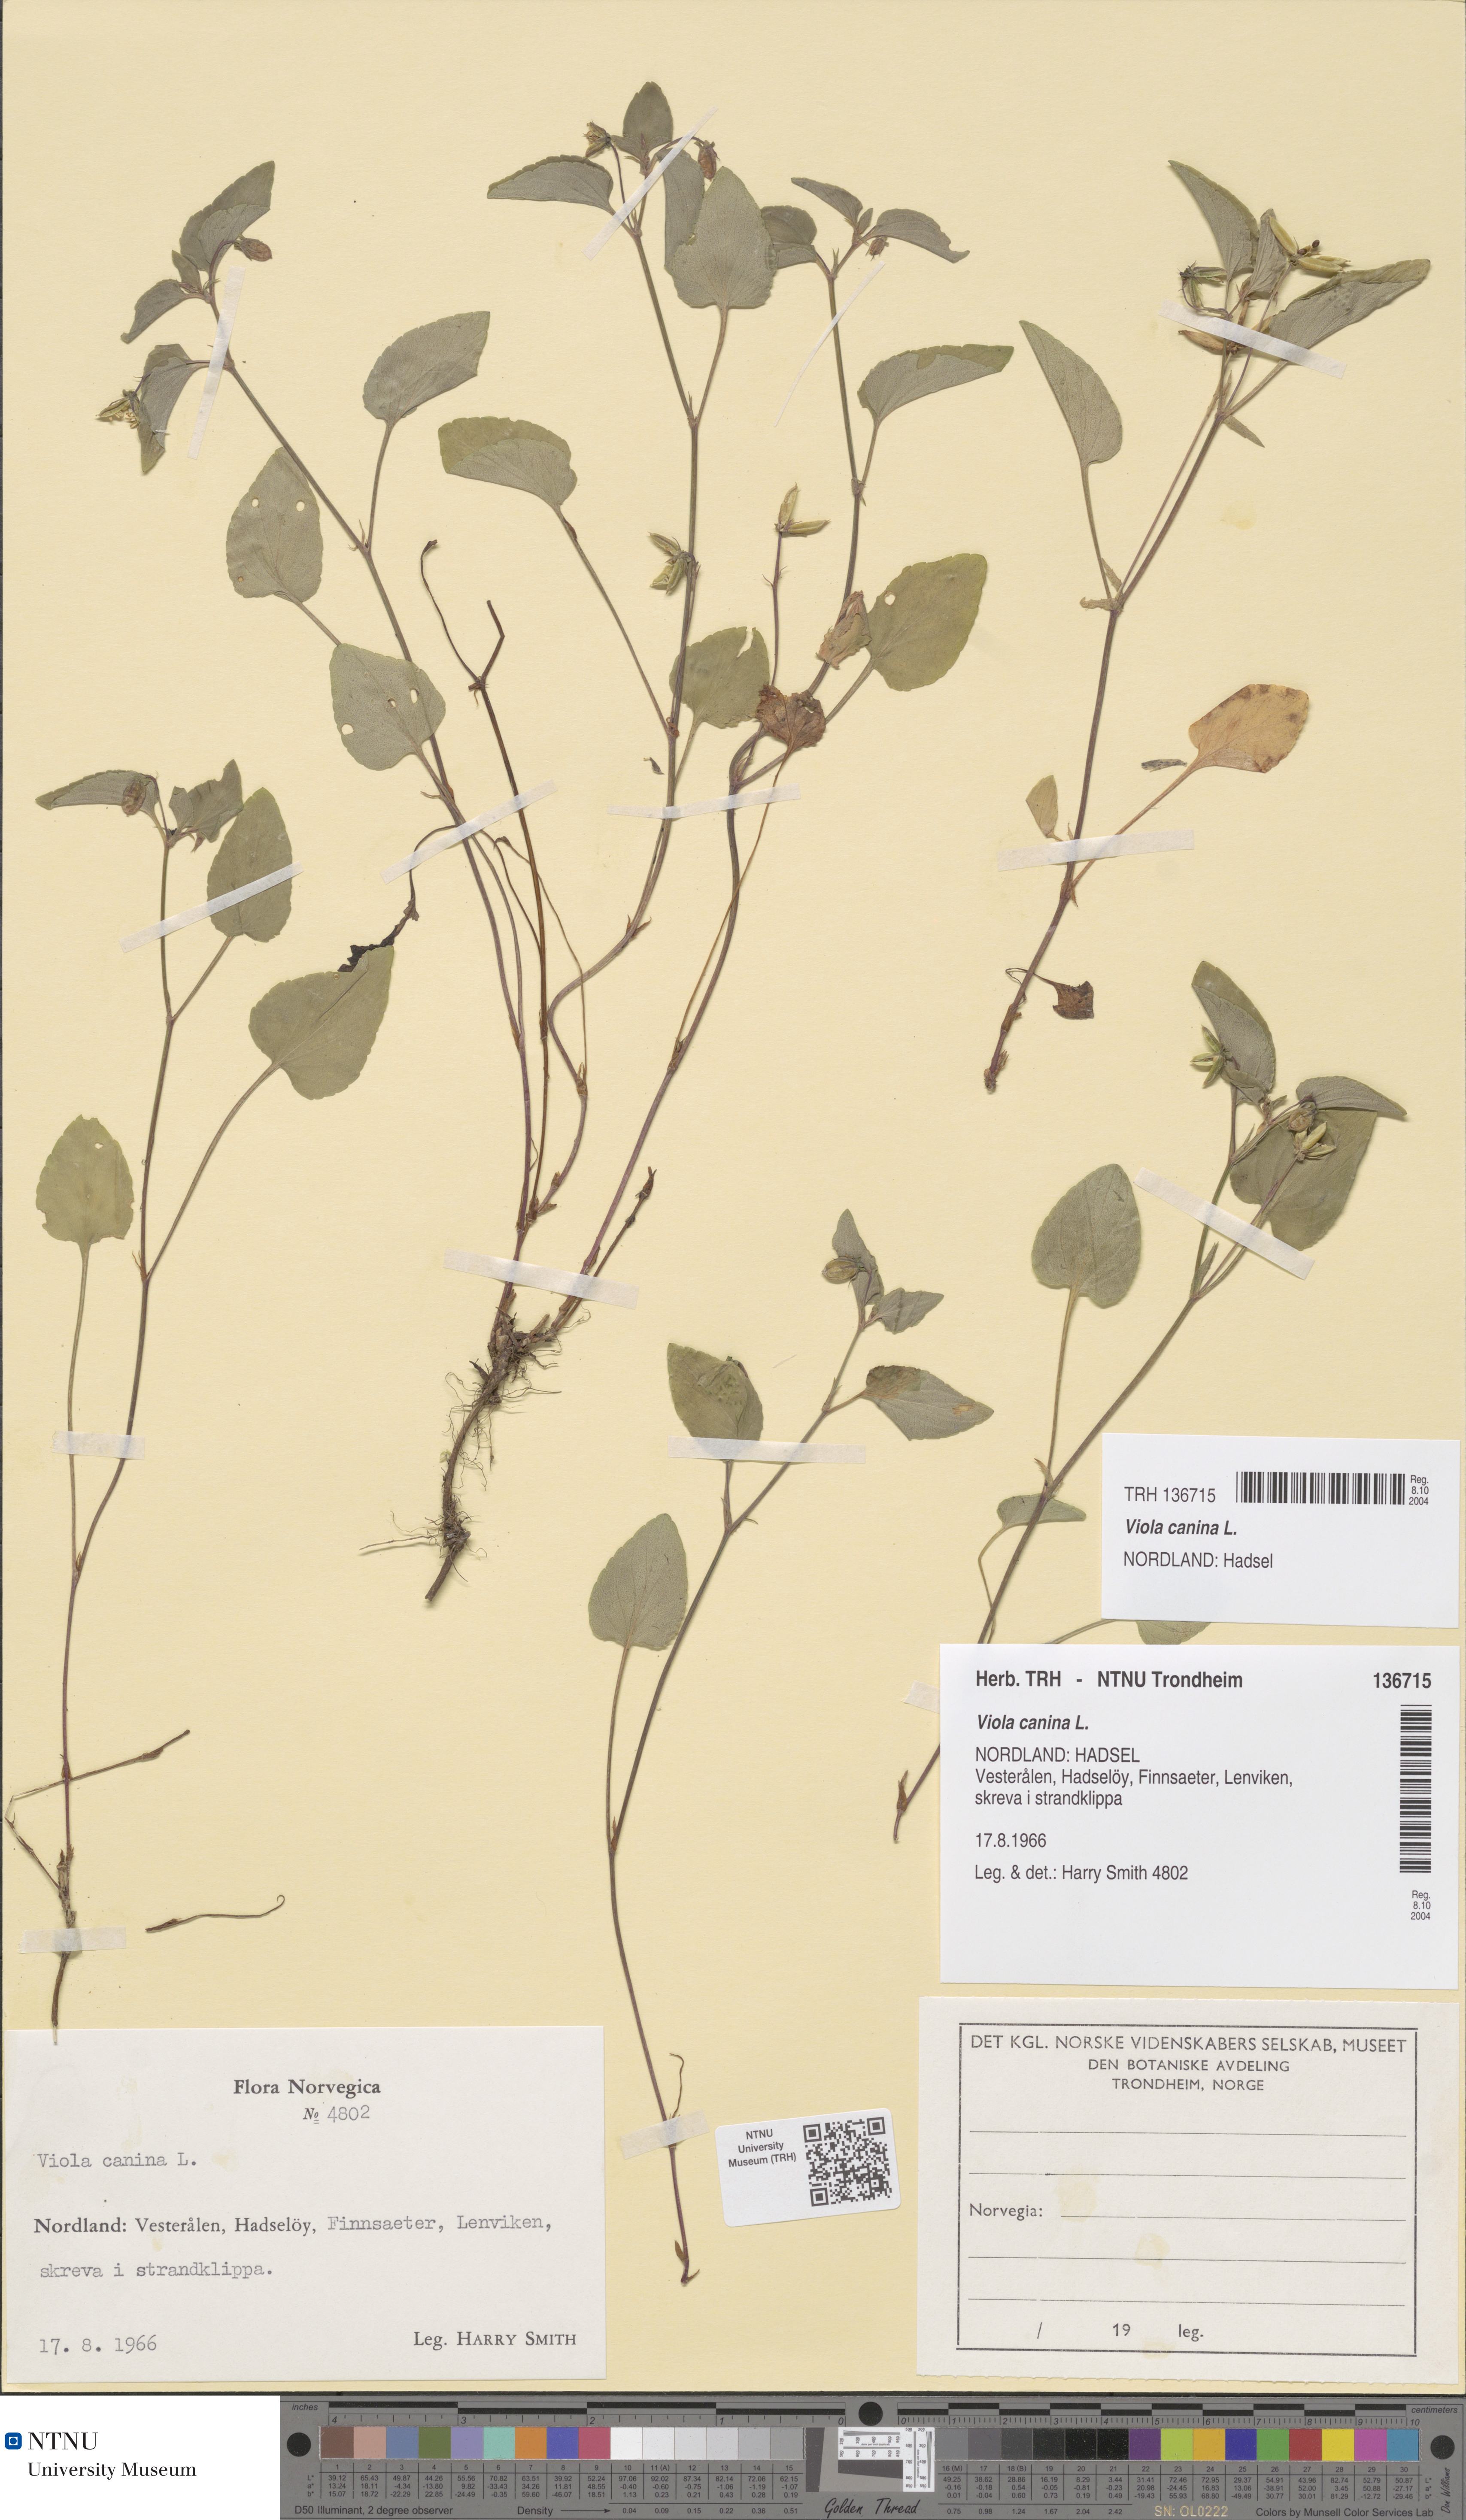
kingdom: Plantae
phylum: Tracheophyta
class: Magnoliopsida
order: Malpighiales
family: Violaceae
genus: Viola
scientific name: Viola canina
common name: Heath dog-violet
